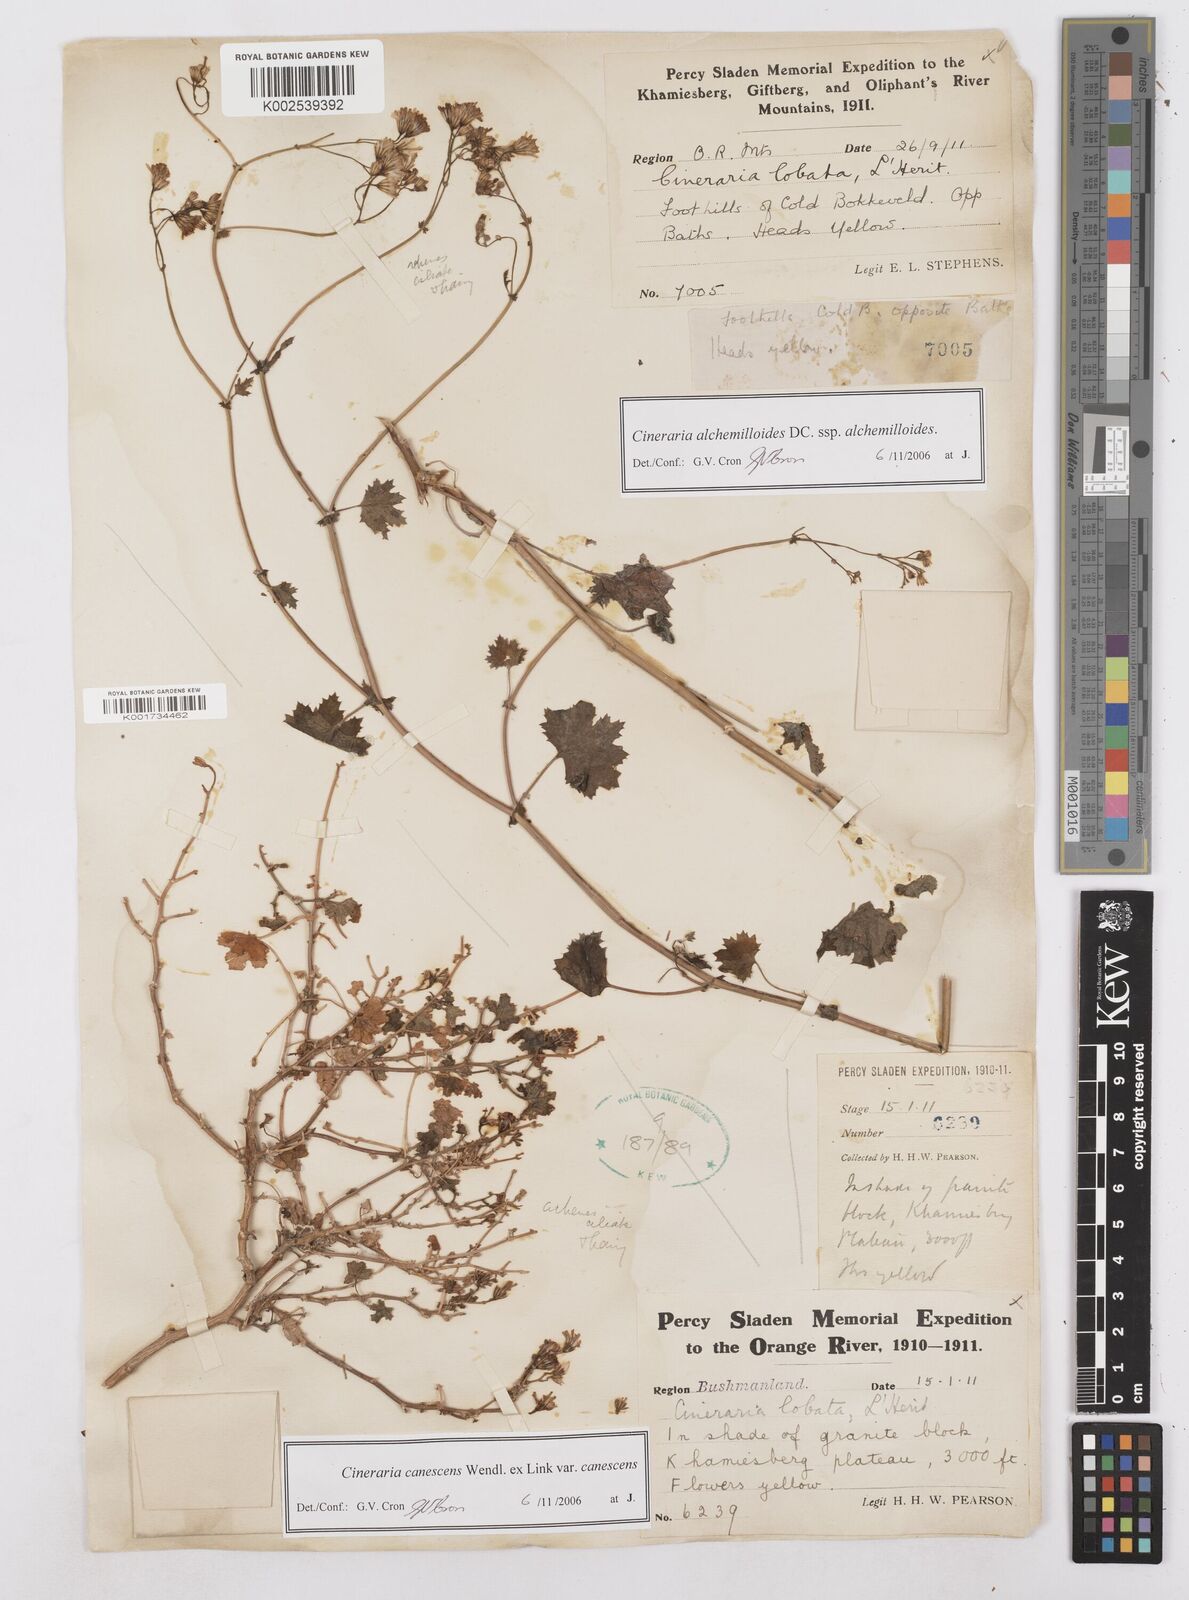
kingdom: Plantae
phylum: Tracheophyta
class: Magnoliopsida
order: Asterales
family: Asteraceae
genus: Cineraria
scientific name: Cineraria alchemilloides
